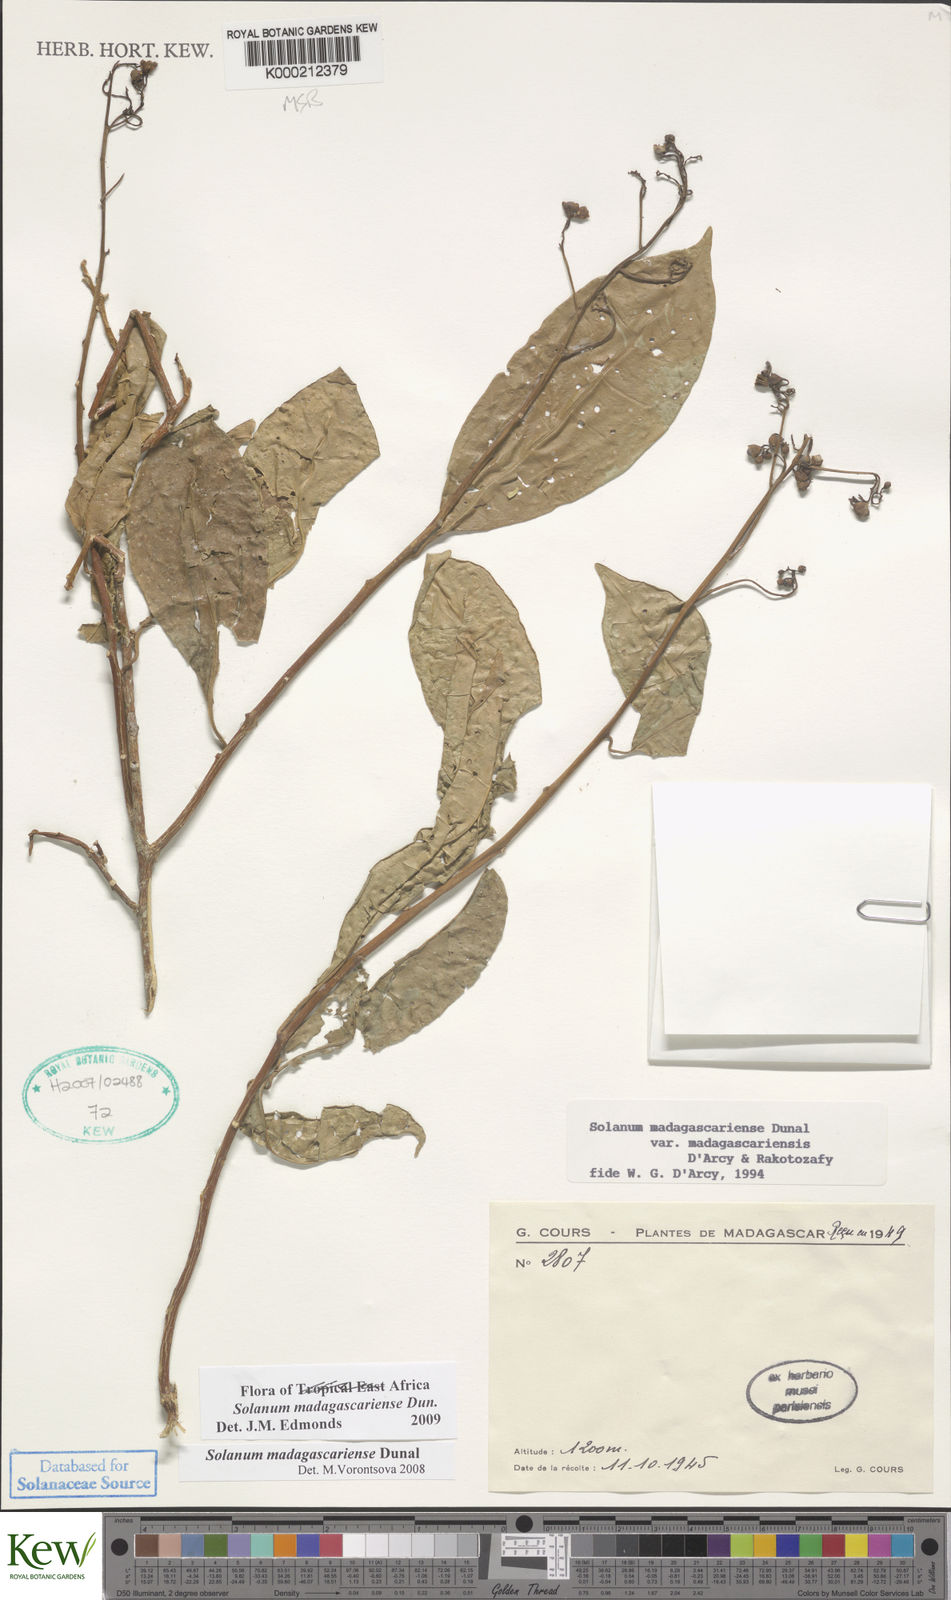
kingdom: Plantae
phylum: Tracheophyta
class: Magnoliopsida
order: Solanales
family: Solanaceae
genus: Solanum
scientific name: Solanum madagascariense
